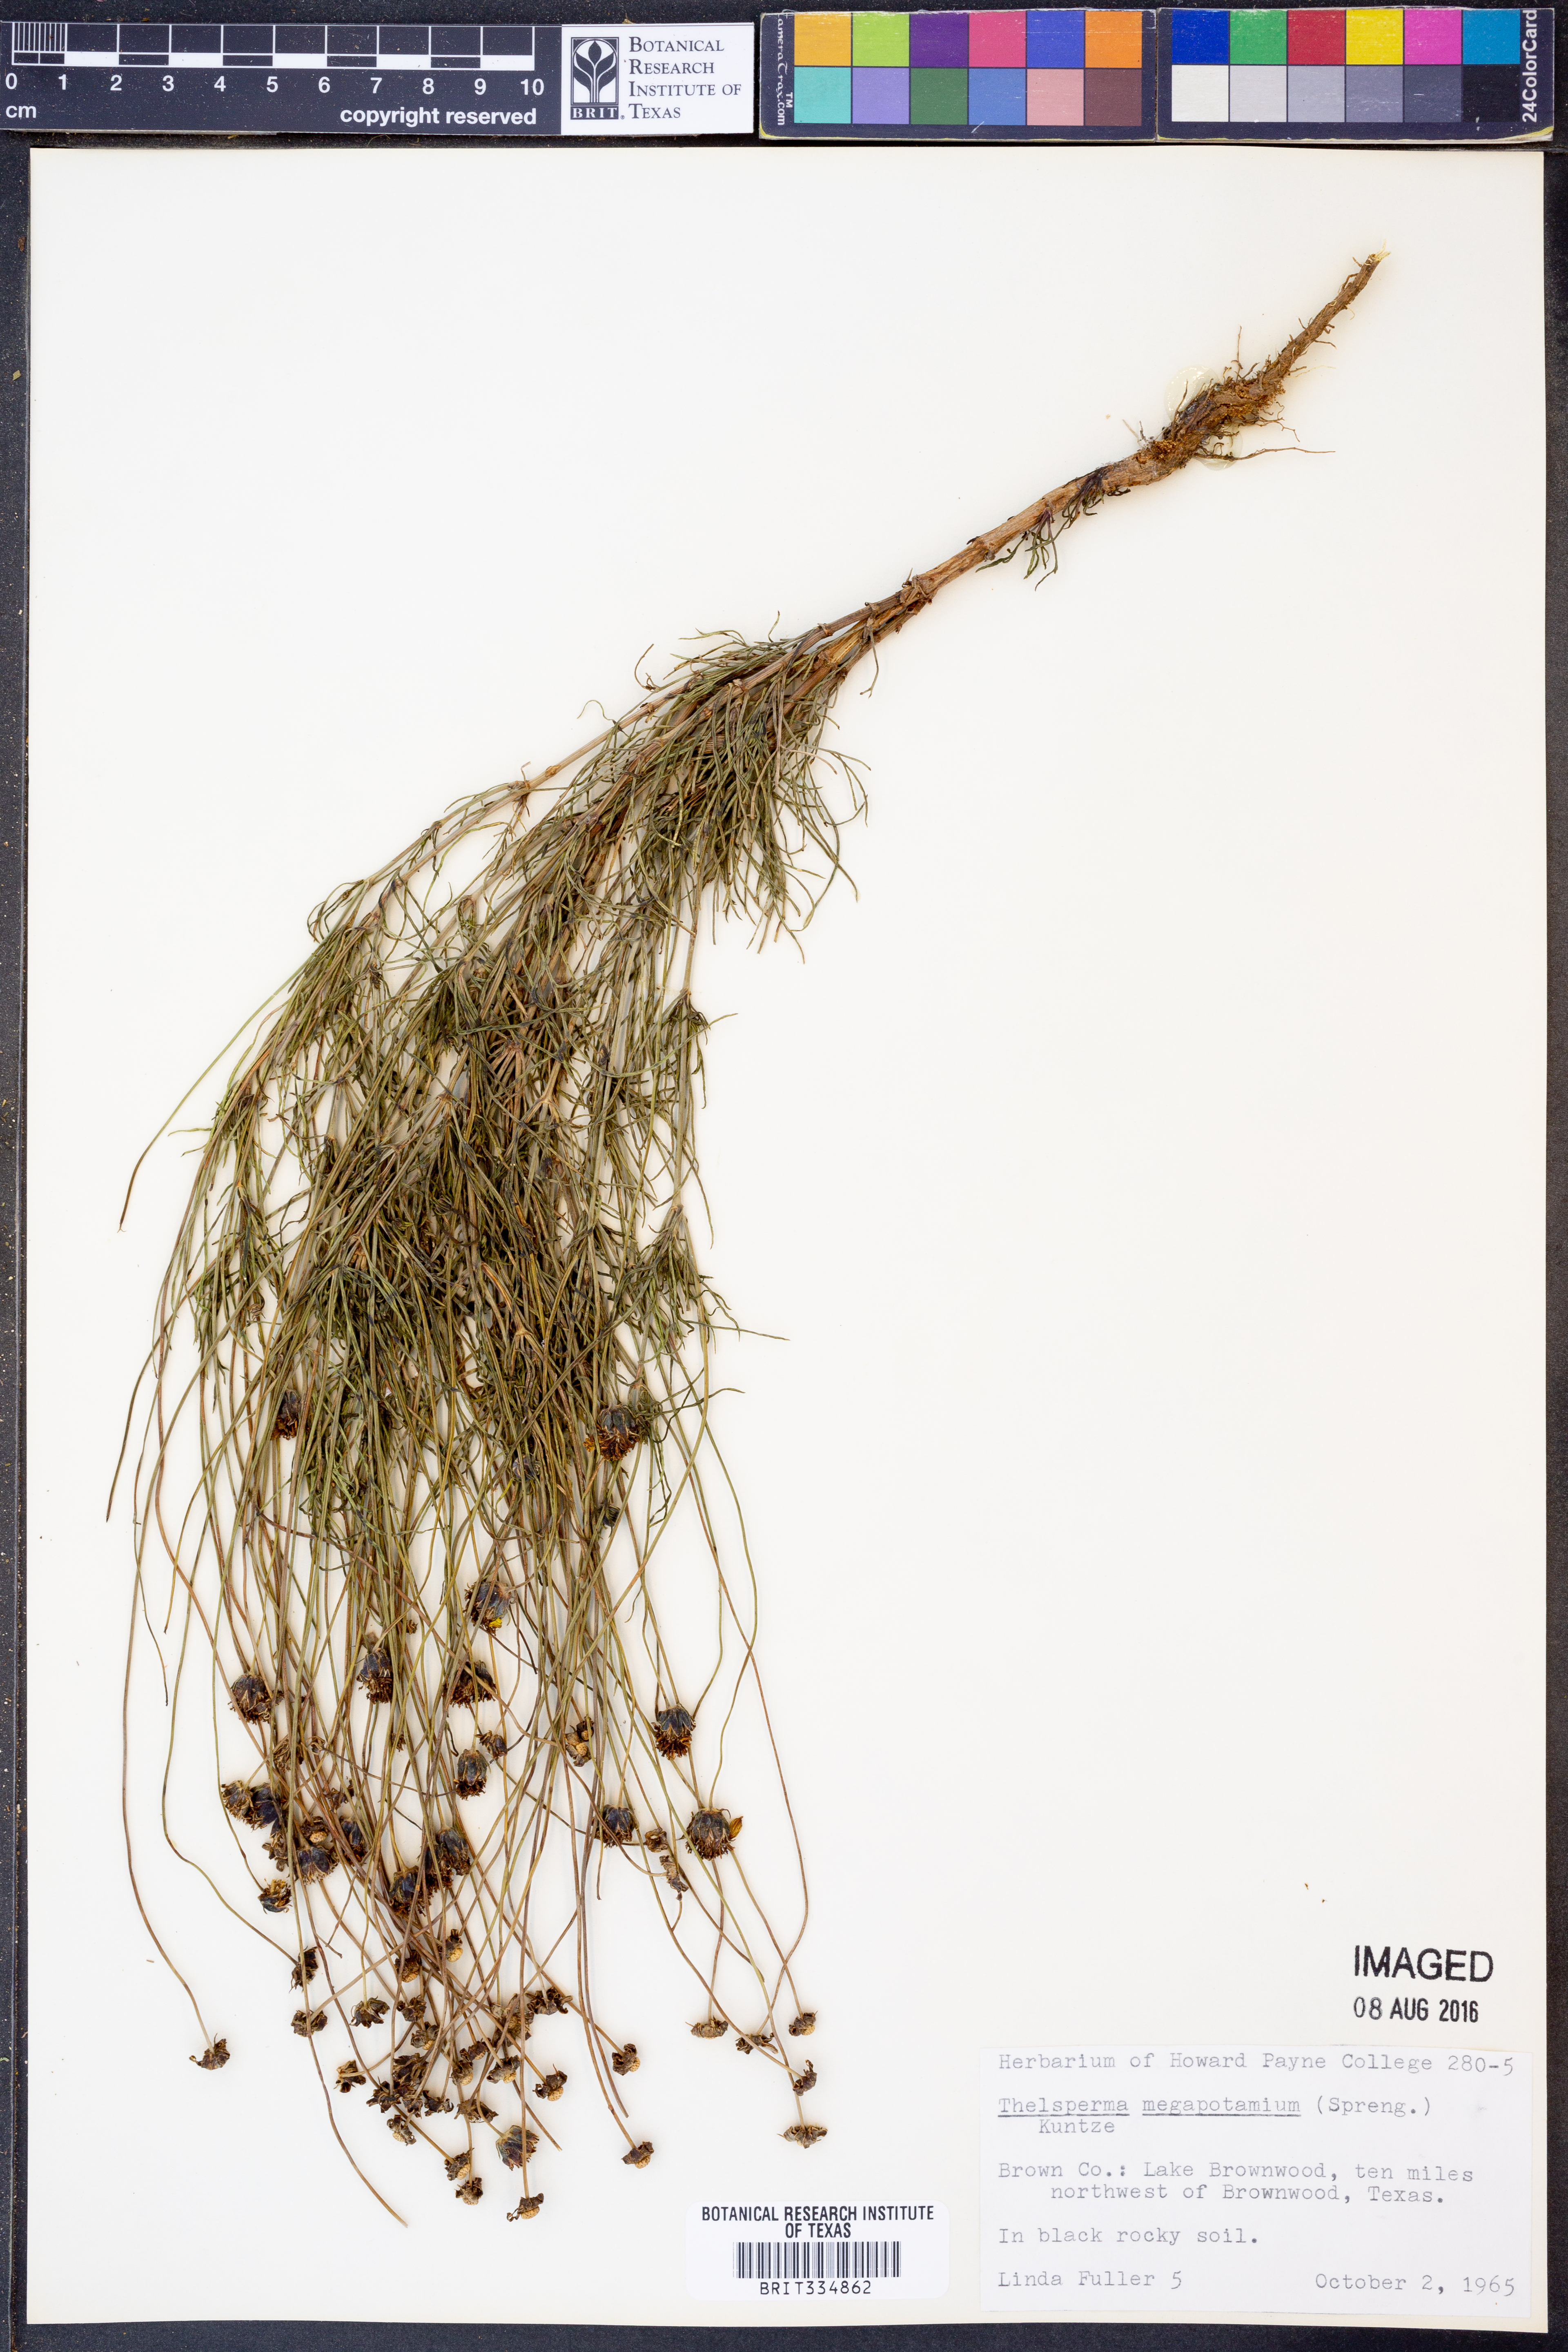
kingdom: Plantae
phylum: Tracheophyta
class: Magnoliopsida
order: Asterales
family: Asteraceae
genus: Thelesperma
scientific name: Thelesperma megapotamicum
